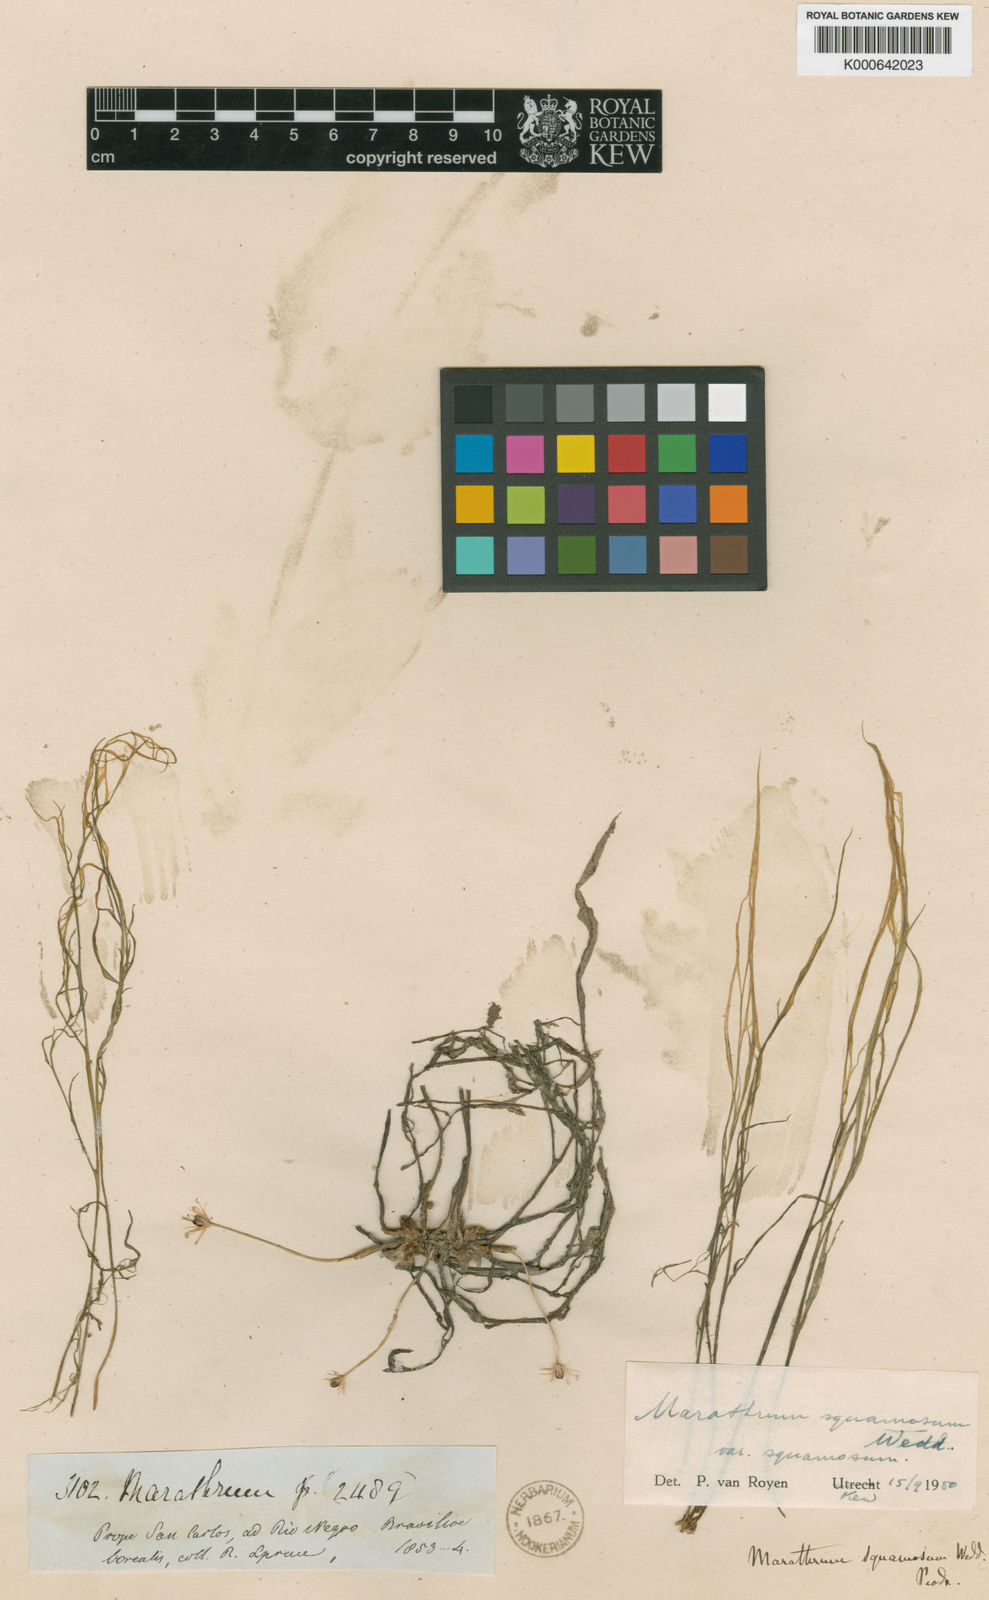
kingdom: Plantae
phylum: Tracheophyta
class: Magnoliopsida
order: Malpighiales
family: Podostemaceae
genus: Rhyncholacis
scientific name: Rhyncholacis squamosa
